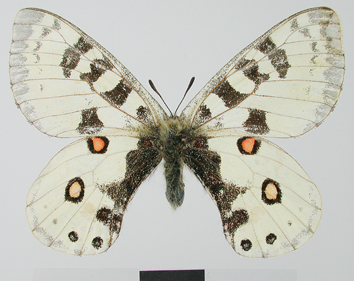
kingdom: Animalia
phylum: Arthropoda
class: Insecta
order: Lepidoptera
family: Papilionidae
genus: Parnassius
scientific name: Parnassius orleans
